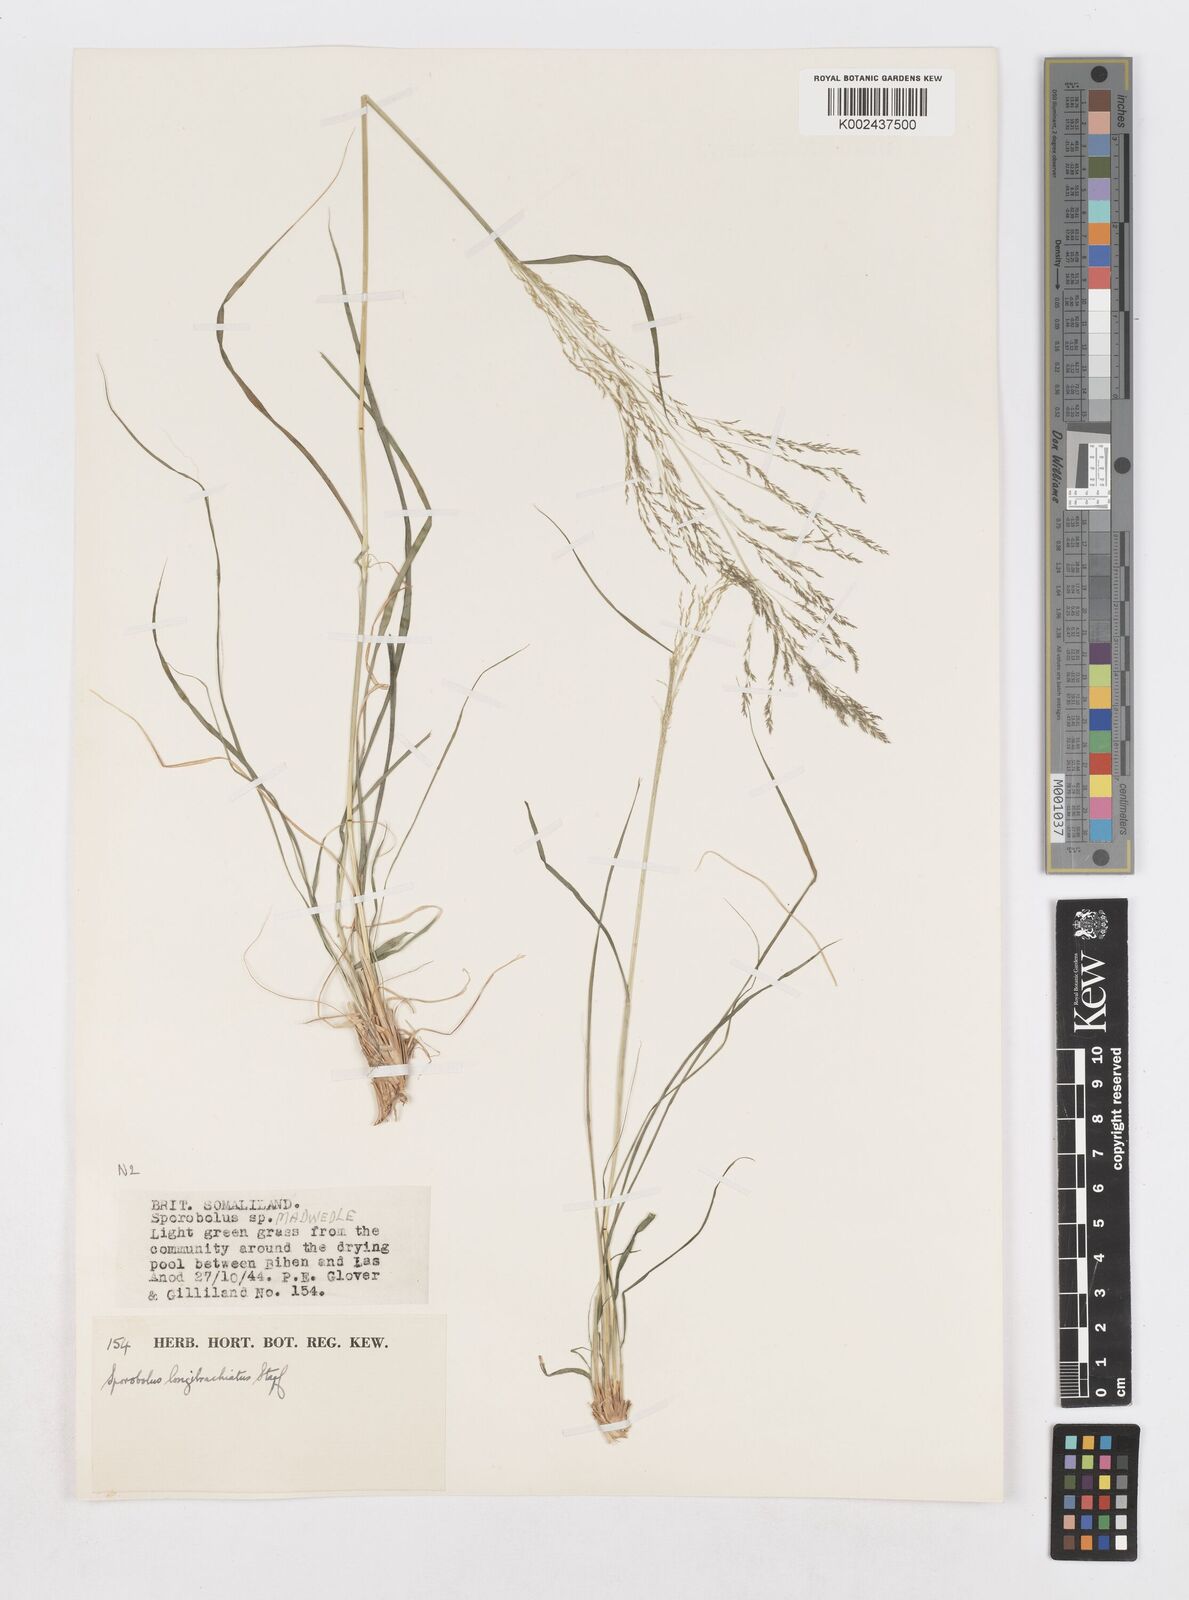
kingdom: Plantae
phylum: Tracheophyta
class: Liliopsida
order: Poales
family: Poaceae
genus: Sporobolus
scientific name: Sporobolus nervosus
